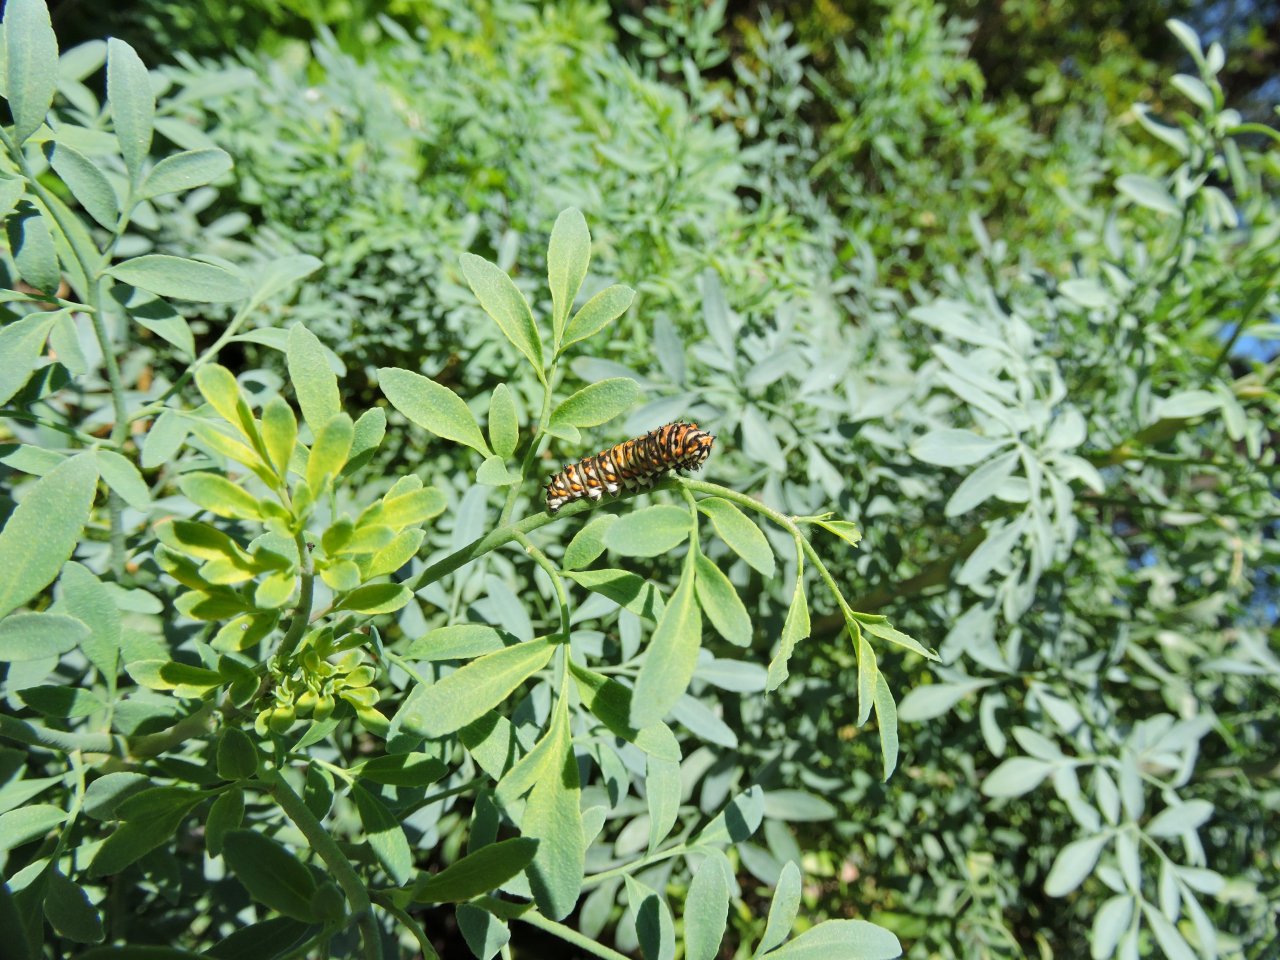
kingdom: Animalia
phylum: Arthropoda
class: Insecta
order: Lepidoptera
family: Papilionidae
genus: Papilio
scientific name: Papilio polyxenes
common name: Black Swallowtail
